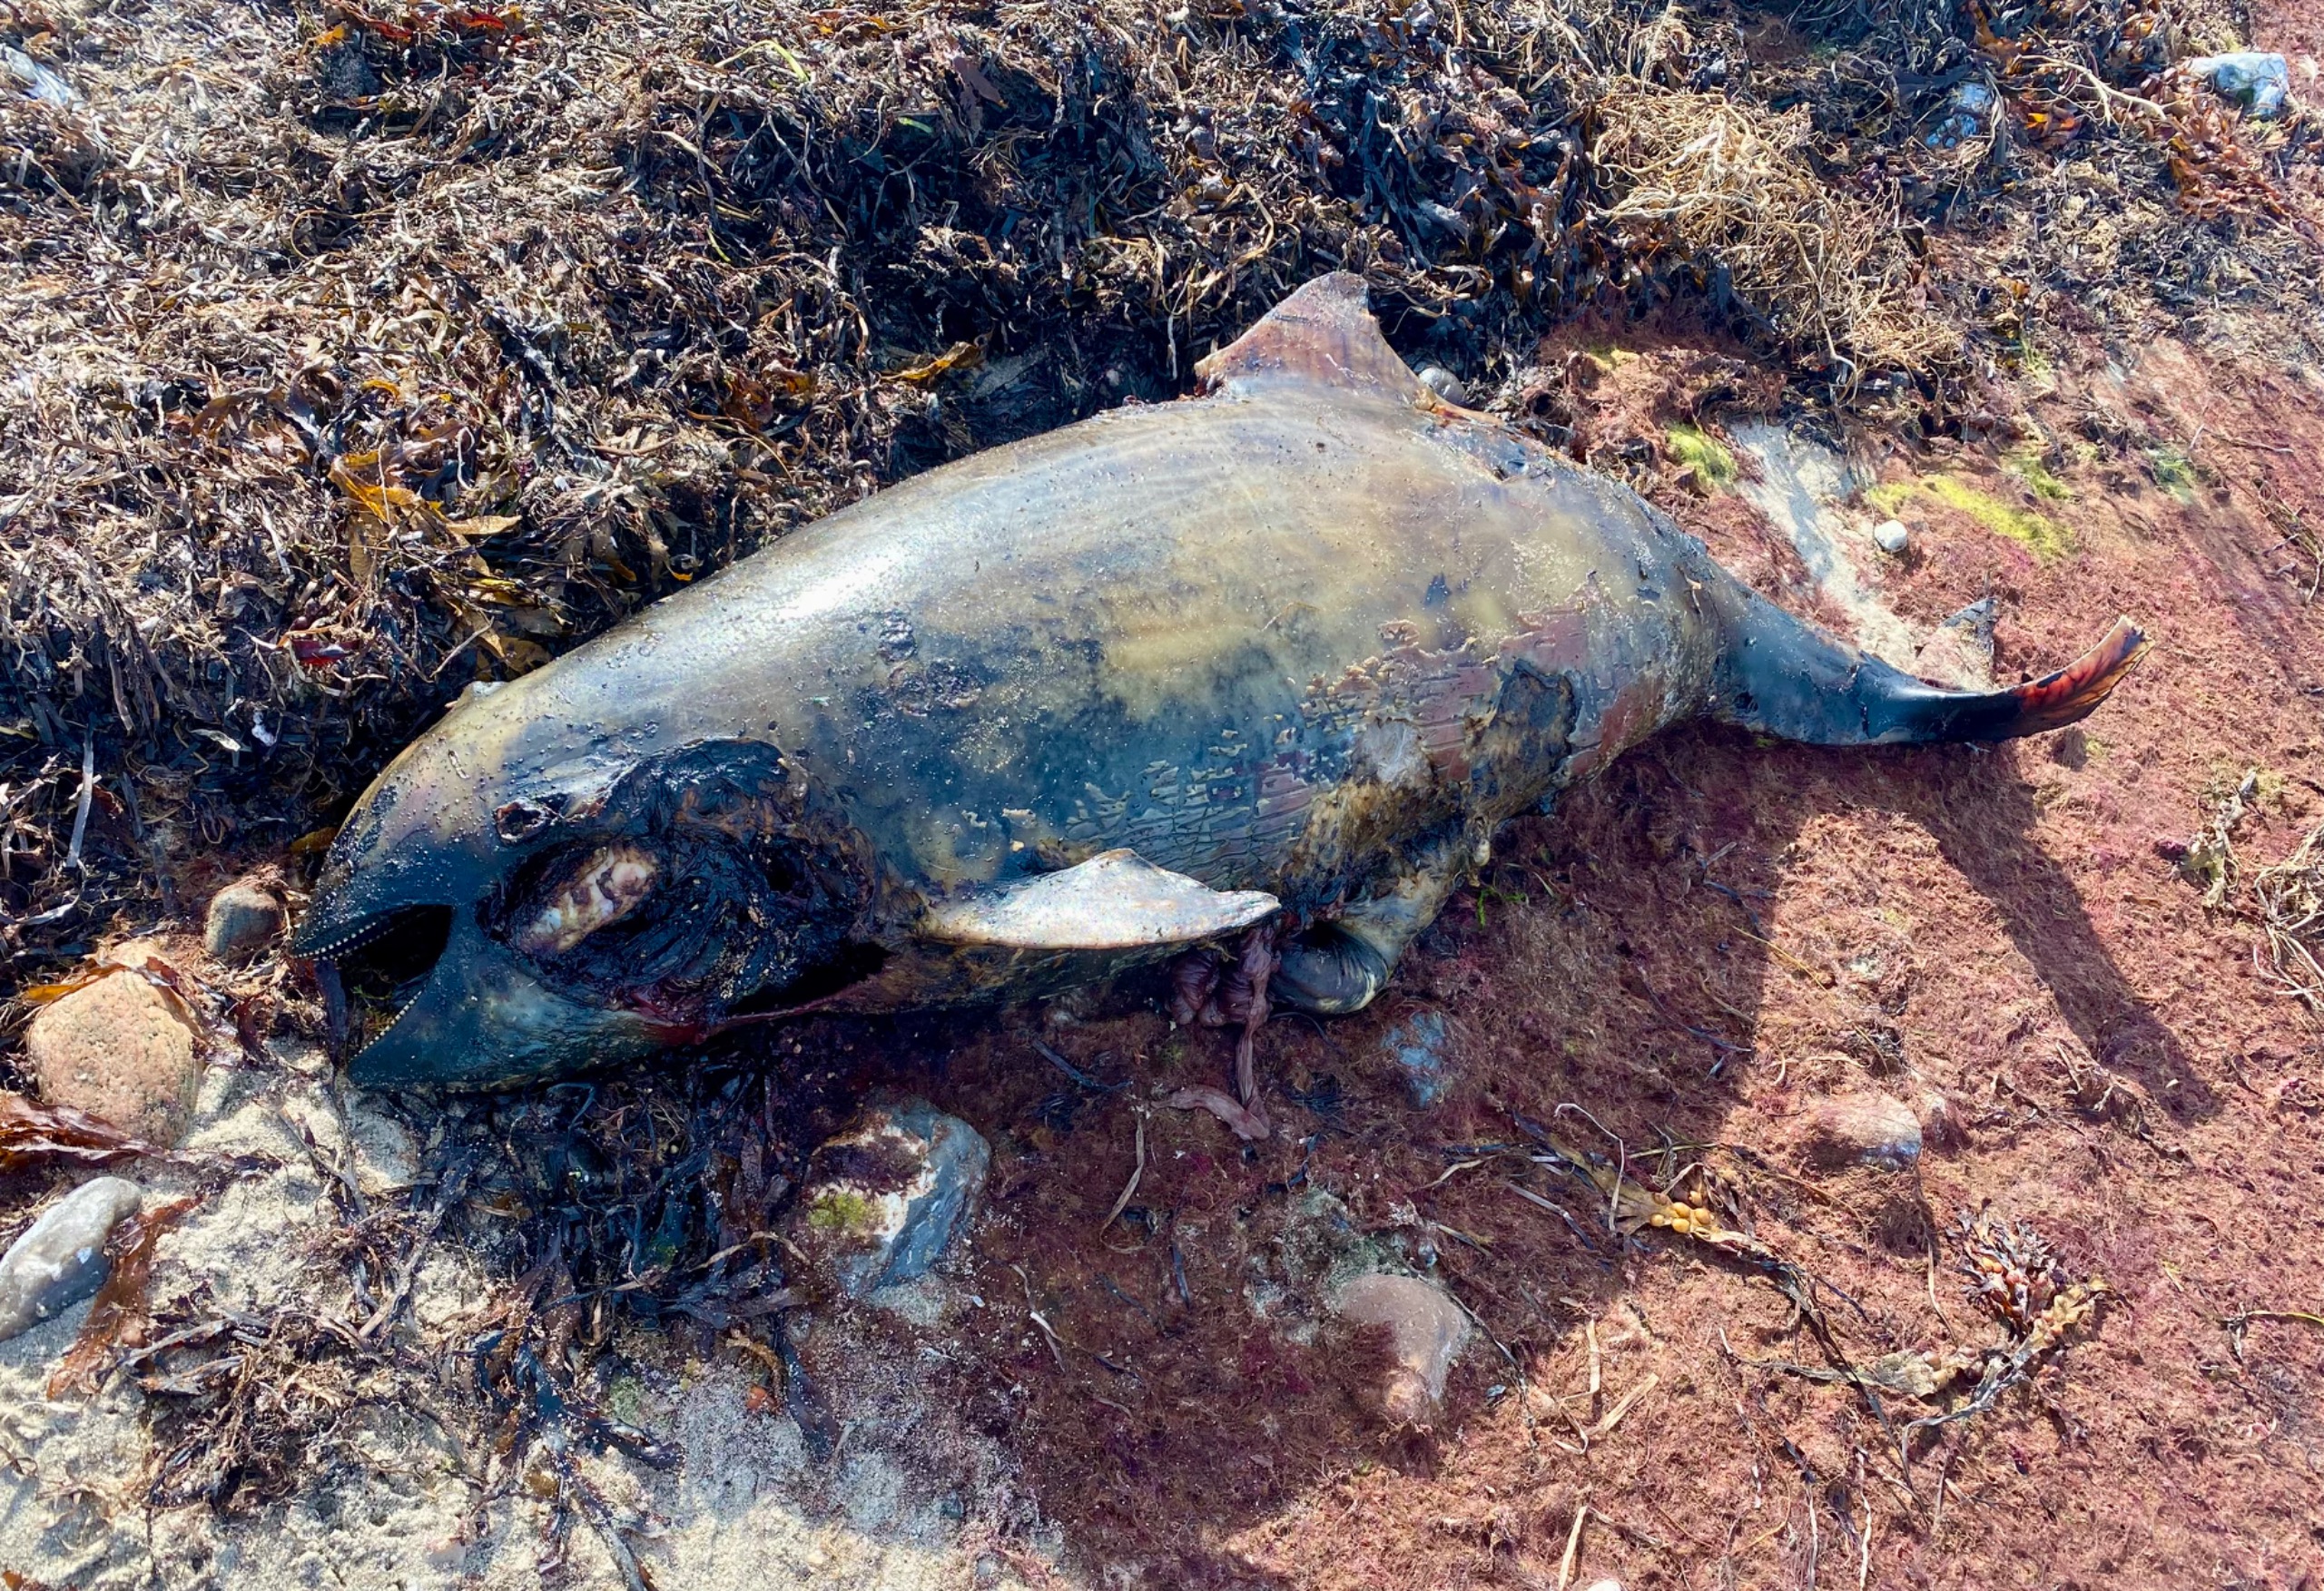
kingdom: Animalia
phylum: Chordata
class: Mammalia
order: Cetacea
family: Phocoenidae
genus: Phocoena
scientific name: Phocoena phocoena
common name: Marsvin
